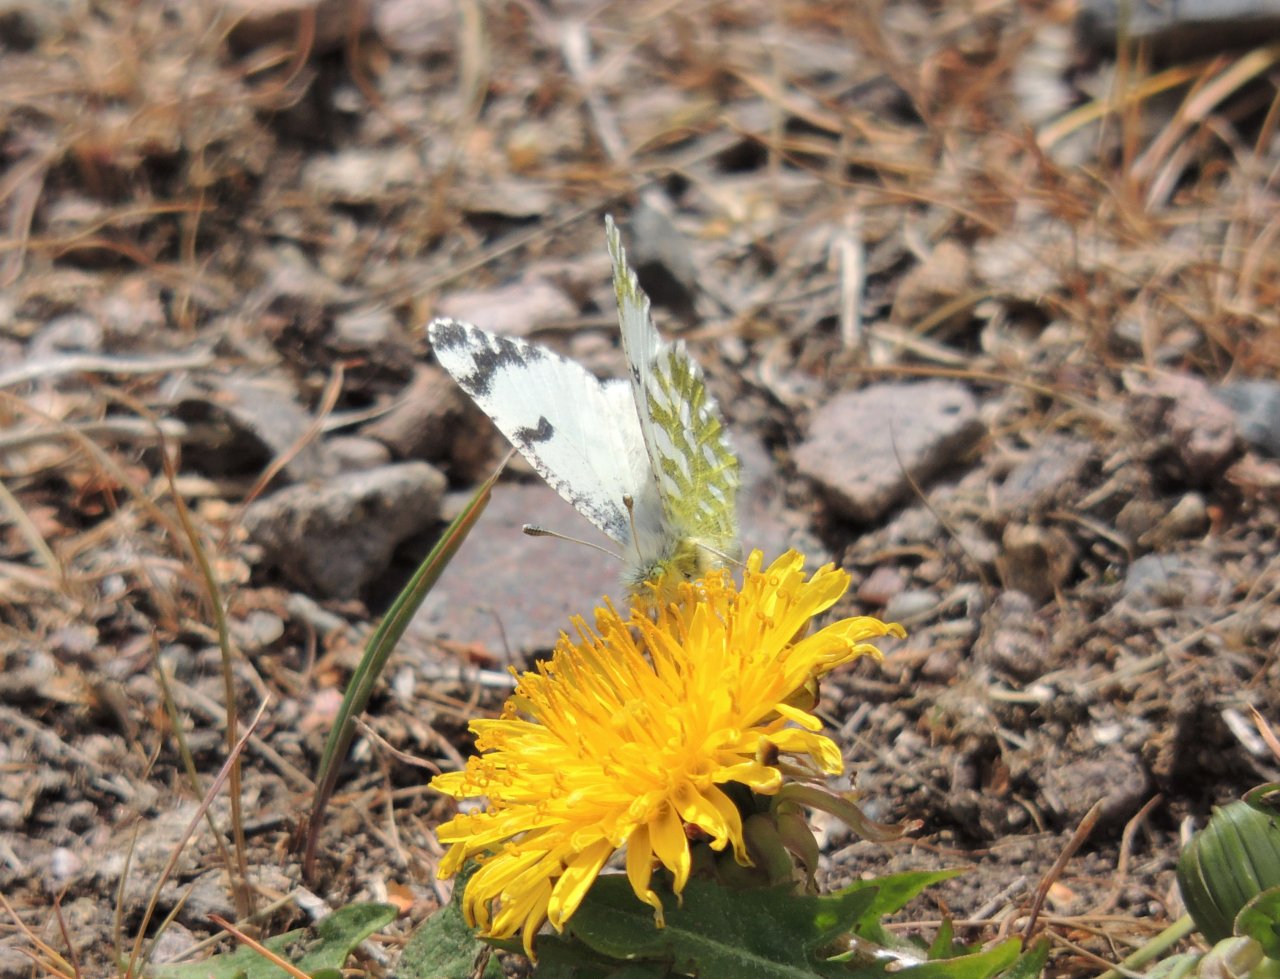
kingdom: Animalia
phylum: Arthropoda
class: Insecta
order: Lepidoptera
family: Pieridae
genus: Euchloe
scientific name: Euchloe lotta
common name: Desert Marble
